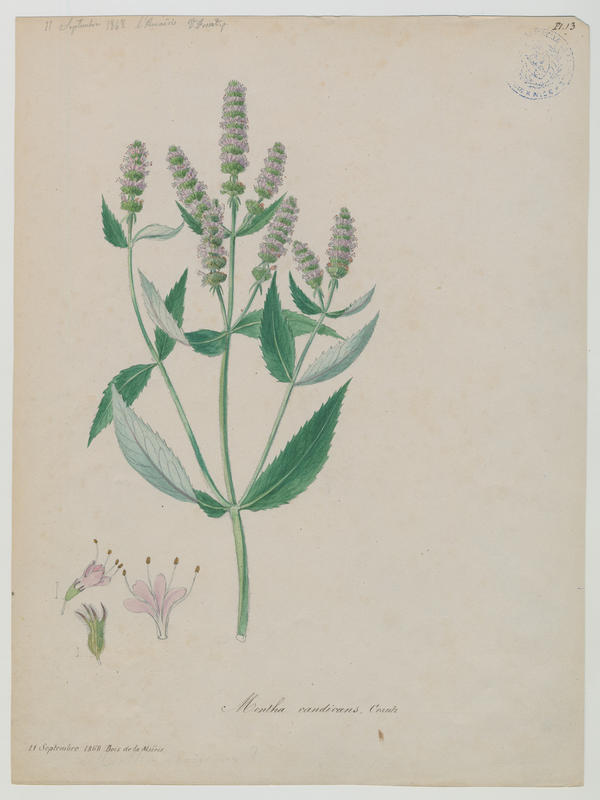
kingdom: Plantae
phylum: Tracheophyta
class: Magnoliopsida
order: Lamiales
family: Lamiaceae
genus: Mentha
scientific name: Mentha longifolia
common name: Horse mint
